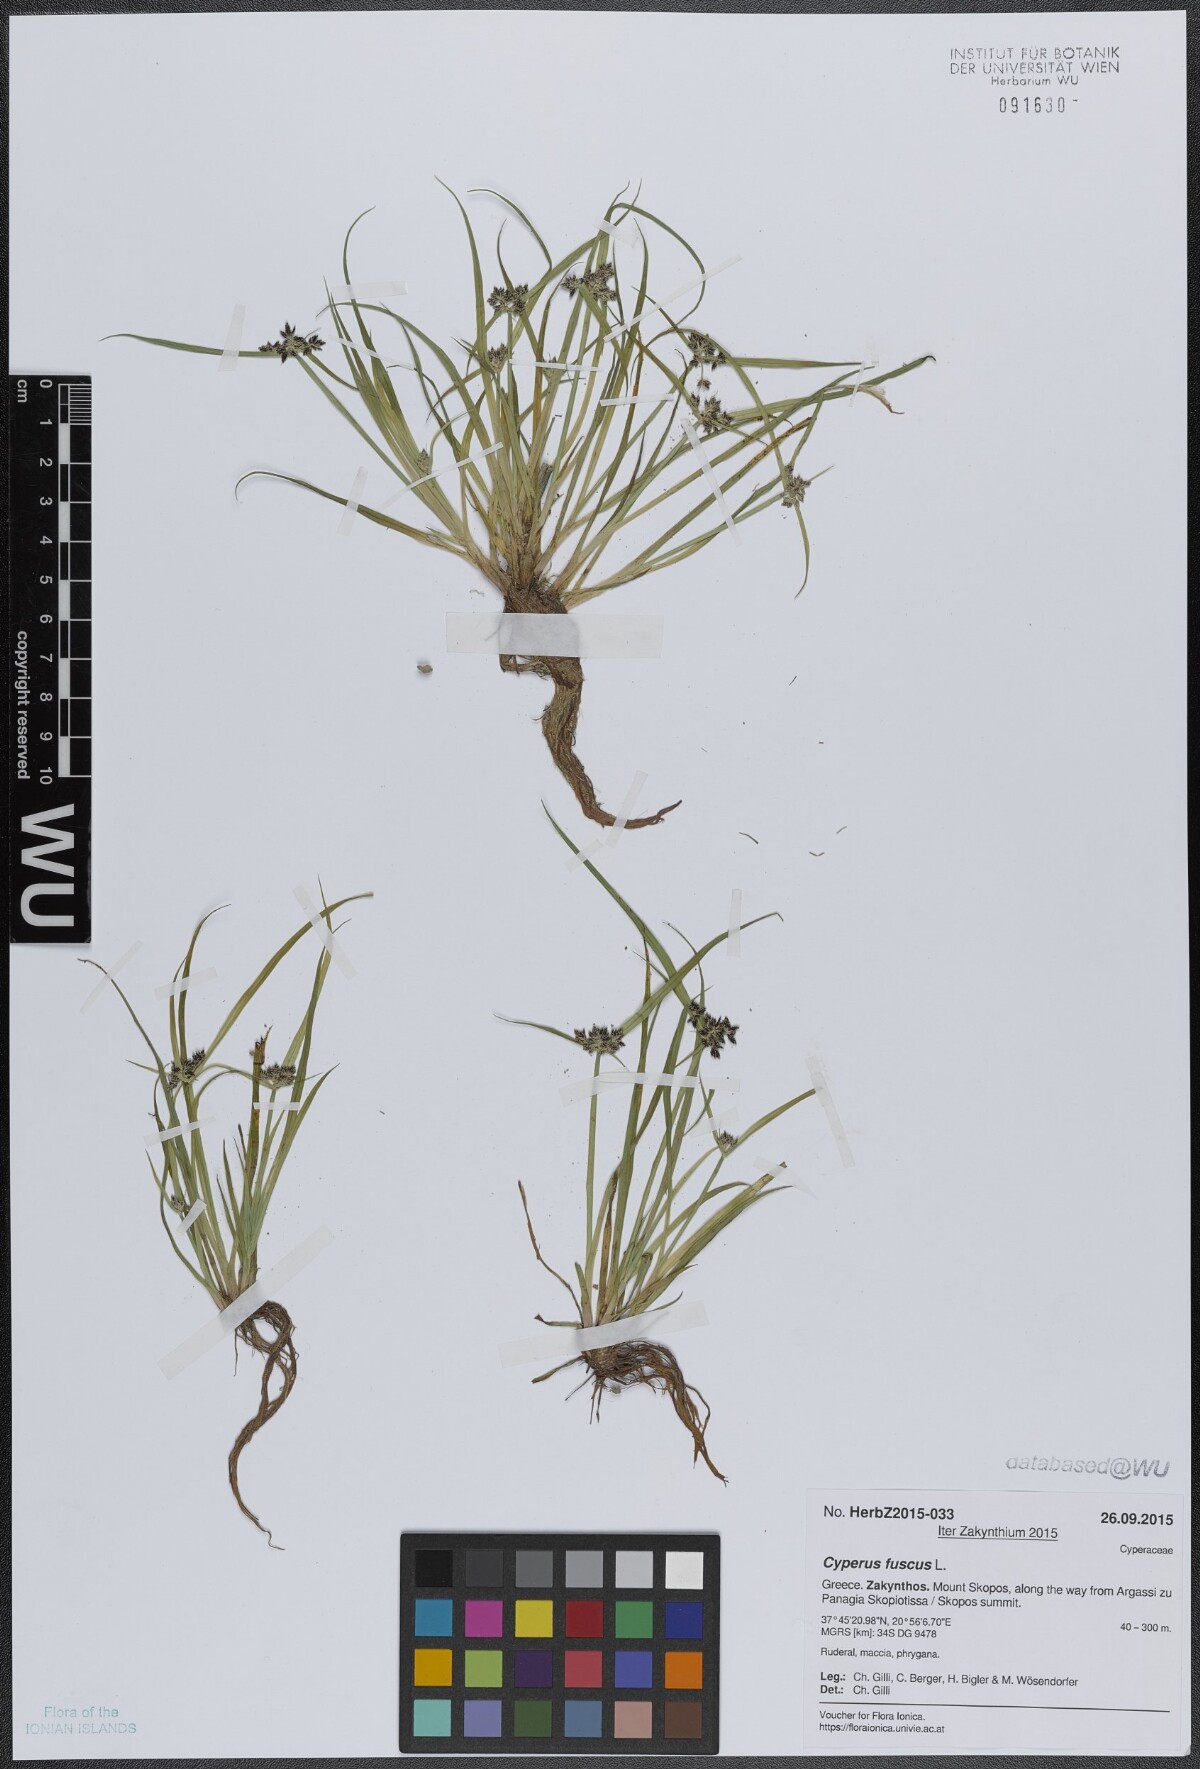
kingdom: Plantae
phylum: Tracheophyta
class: Liliopsida
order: Poales
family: Cyperaceae
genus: Cyperus
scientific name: Cyperus fuscus
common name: Brown galingale
